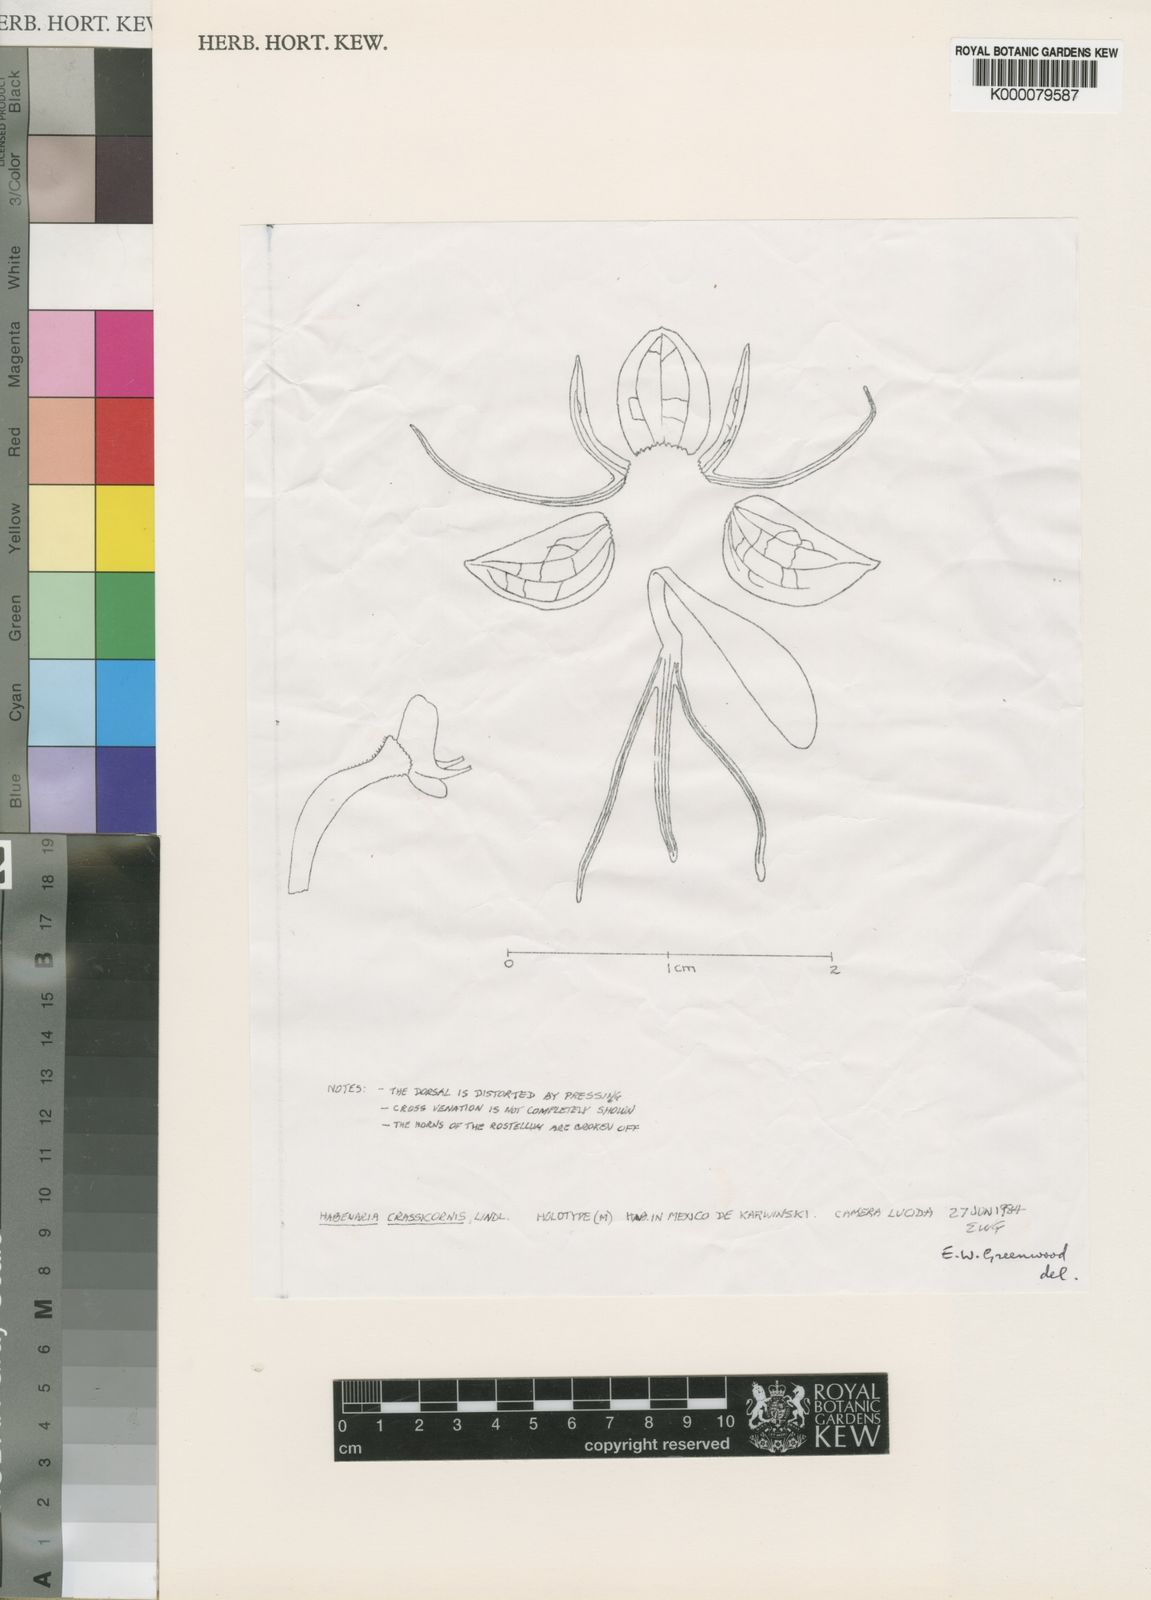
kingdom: Plantae
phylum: Tracheophyta
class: Liliopsida
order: Asparagales
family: Orchidaceae
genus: Habenaria
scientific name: Habenaria crassicornis
